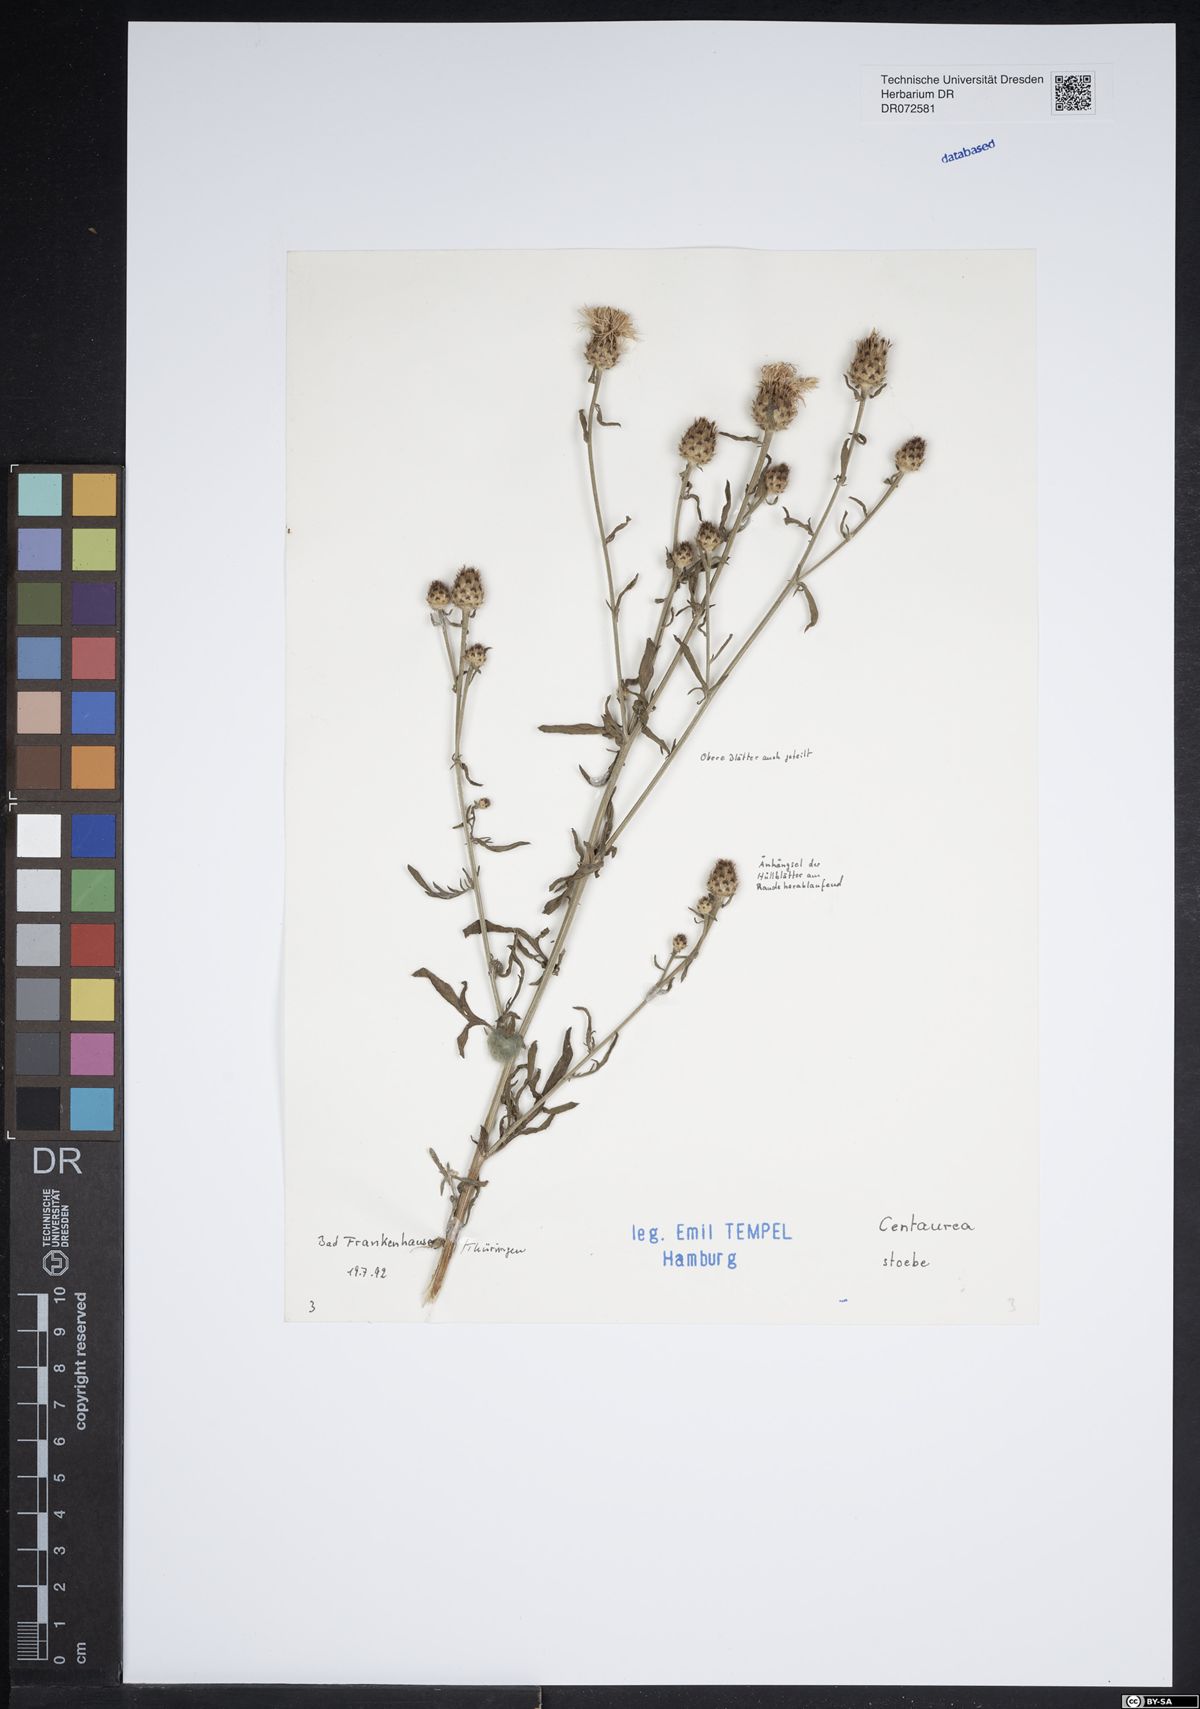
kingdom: Plantae
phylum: Tracheophyta
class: Magnoliopsida
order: Asterales
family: Asteraceae
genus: Centaurea
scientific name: Centaurea stoebe
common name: Spotted knapweed
